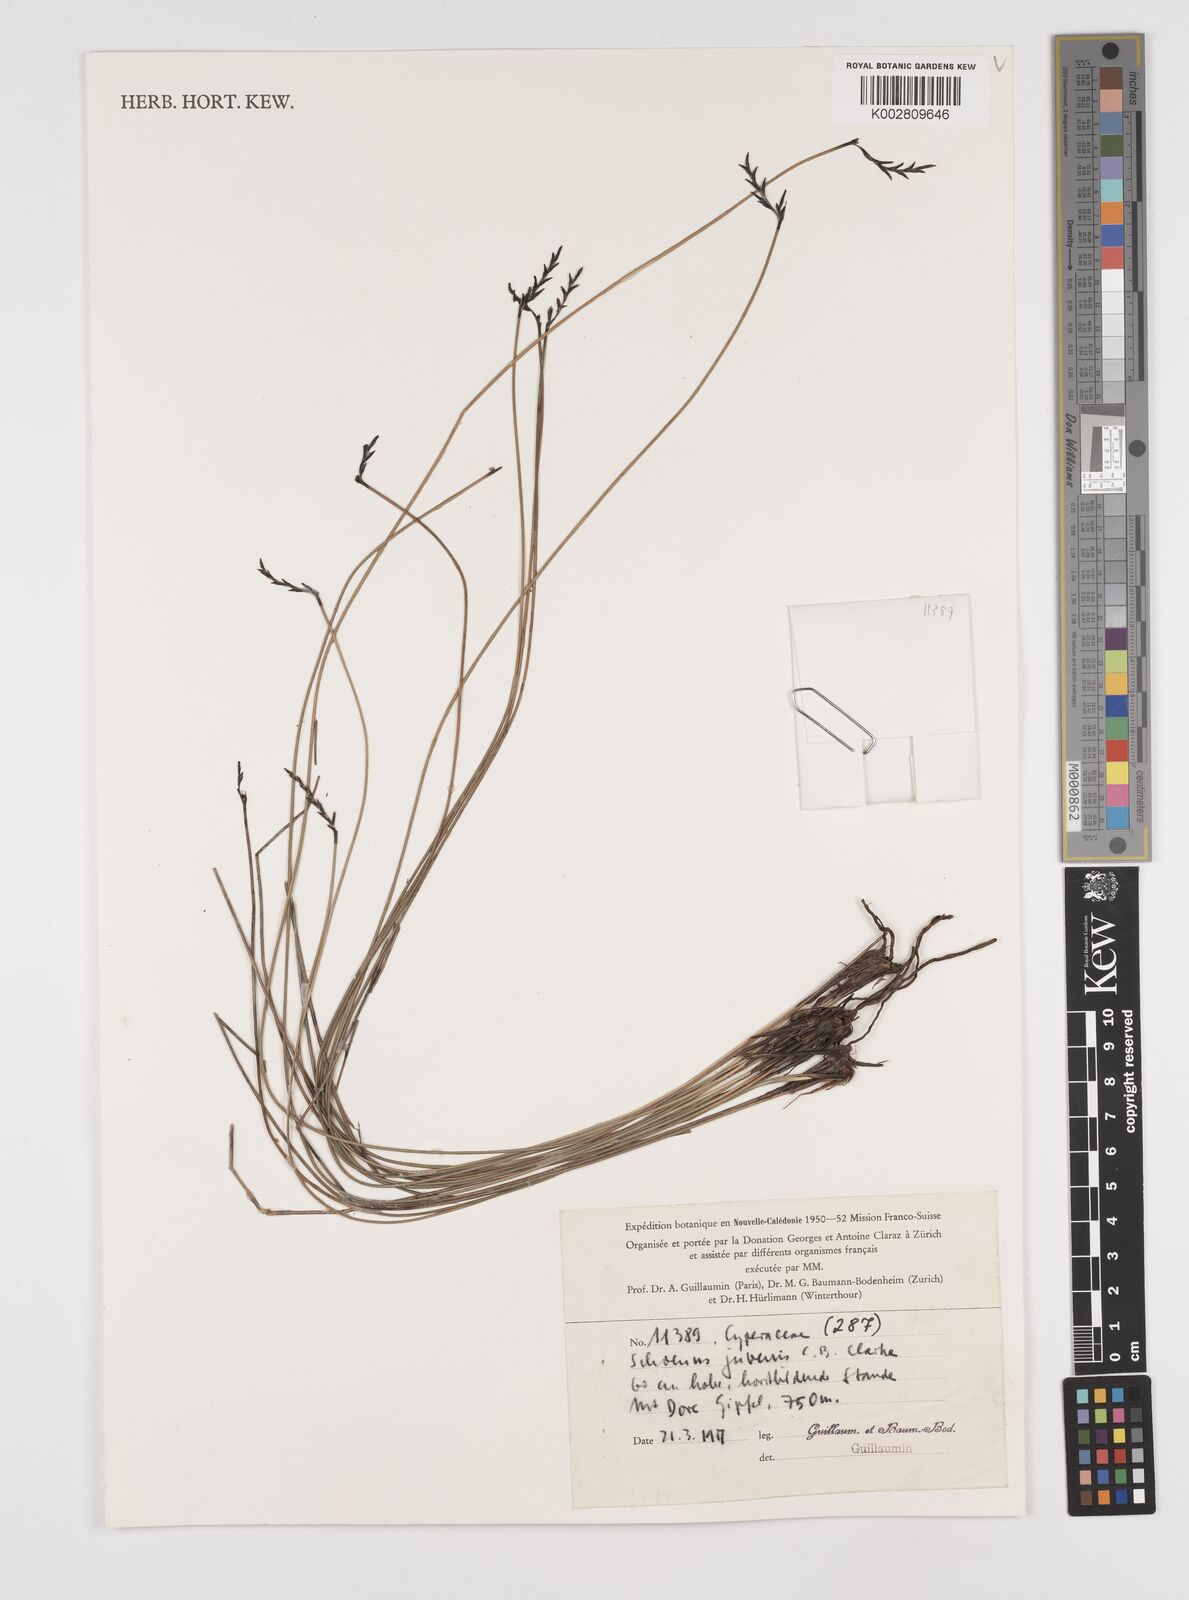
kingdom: Plantae
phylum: Tracheophyta
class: Liliopsida
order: Poales
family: Cyperaceae
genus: Schoenus
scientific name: Schoenus neocaledonicus
